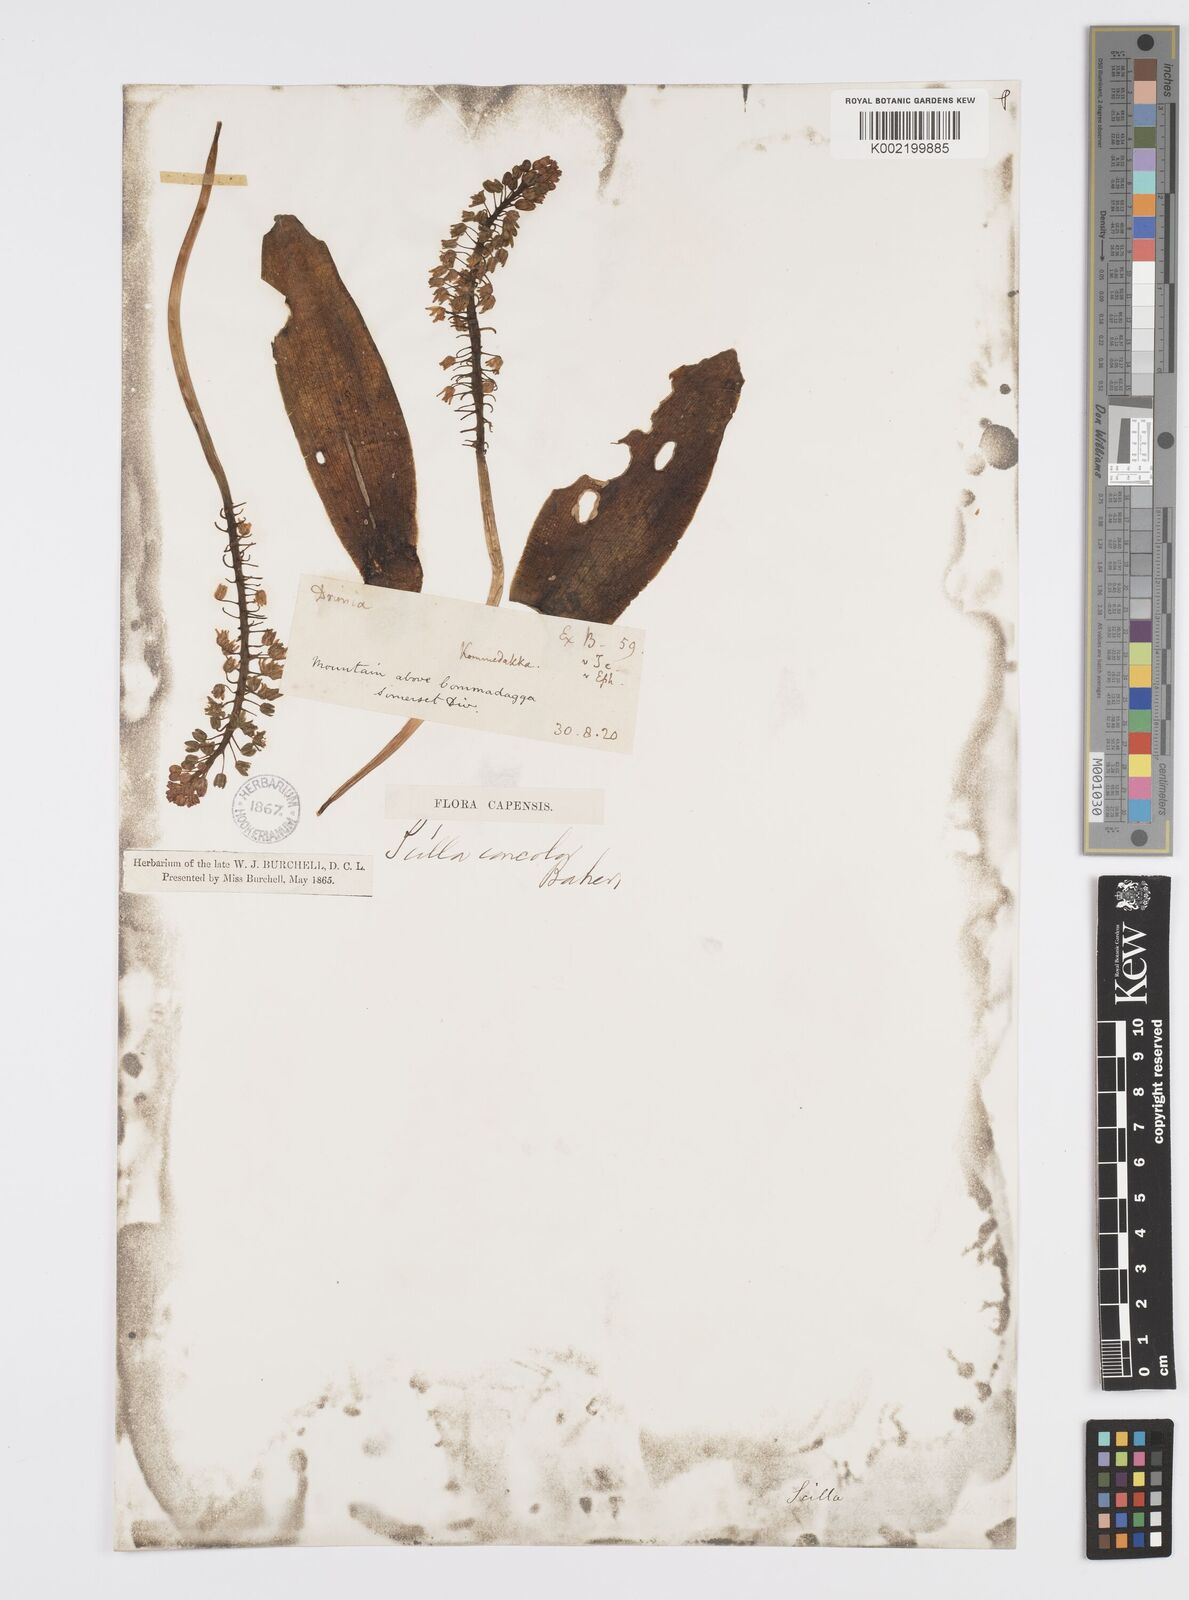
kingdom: Plantae
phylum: Tracheophyta
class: Liliopsida
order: Asparagales
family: Asparagaceae
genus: Ledebouria
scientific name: Ledebouria nitida
